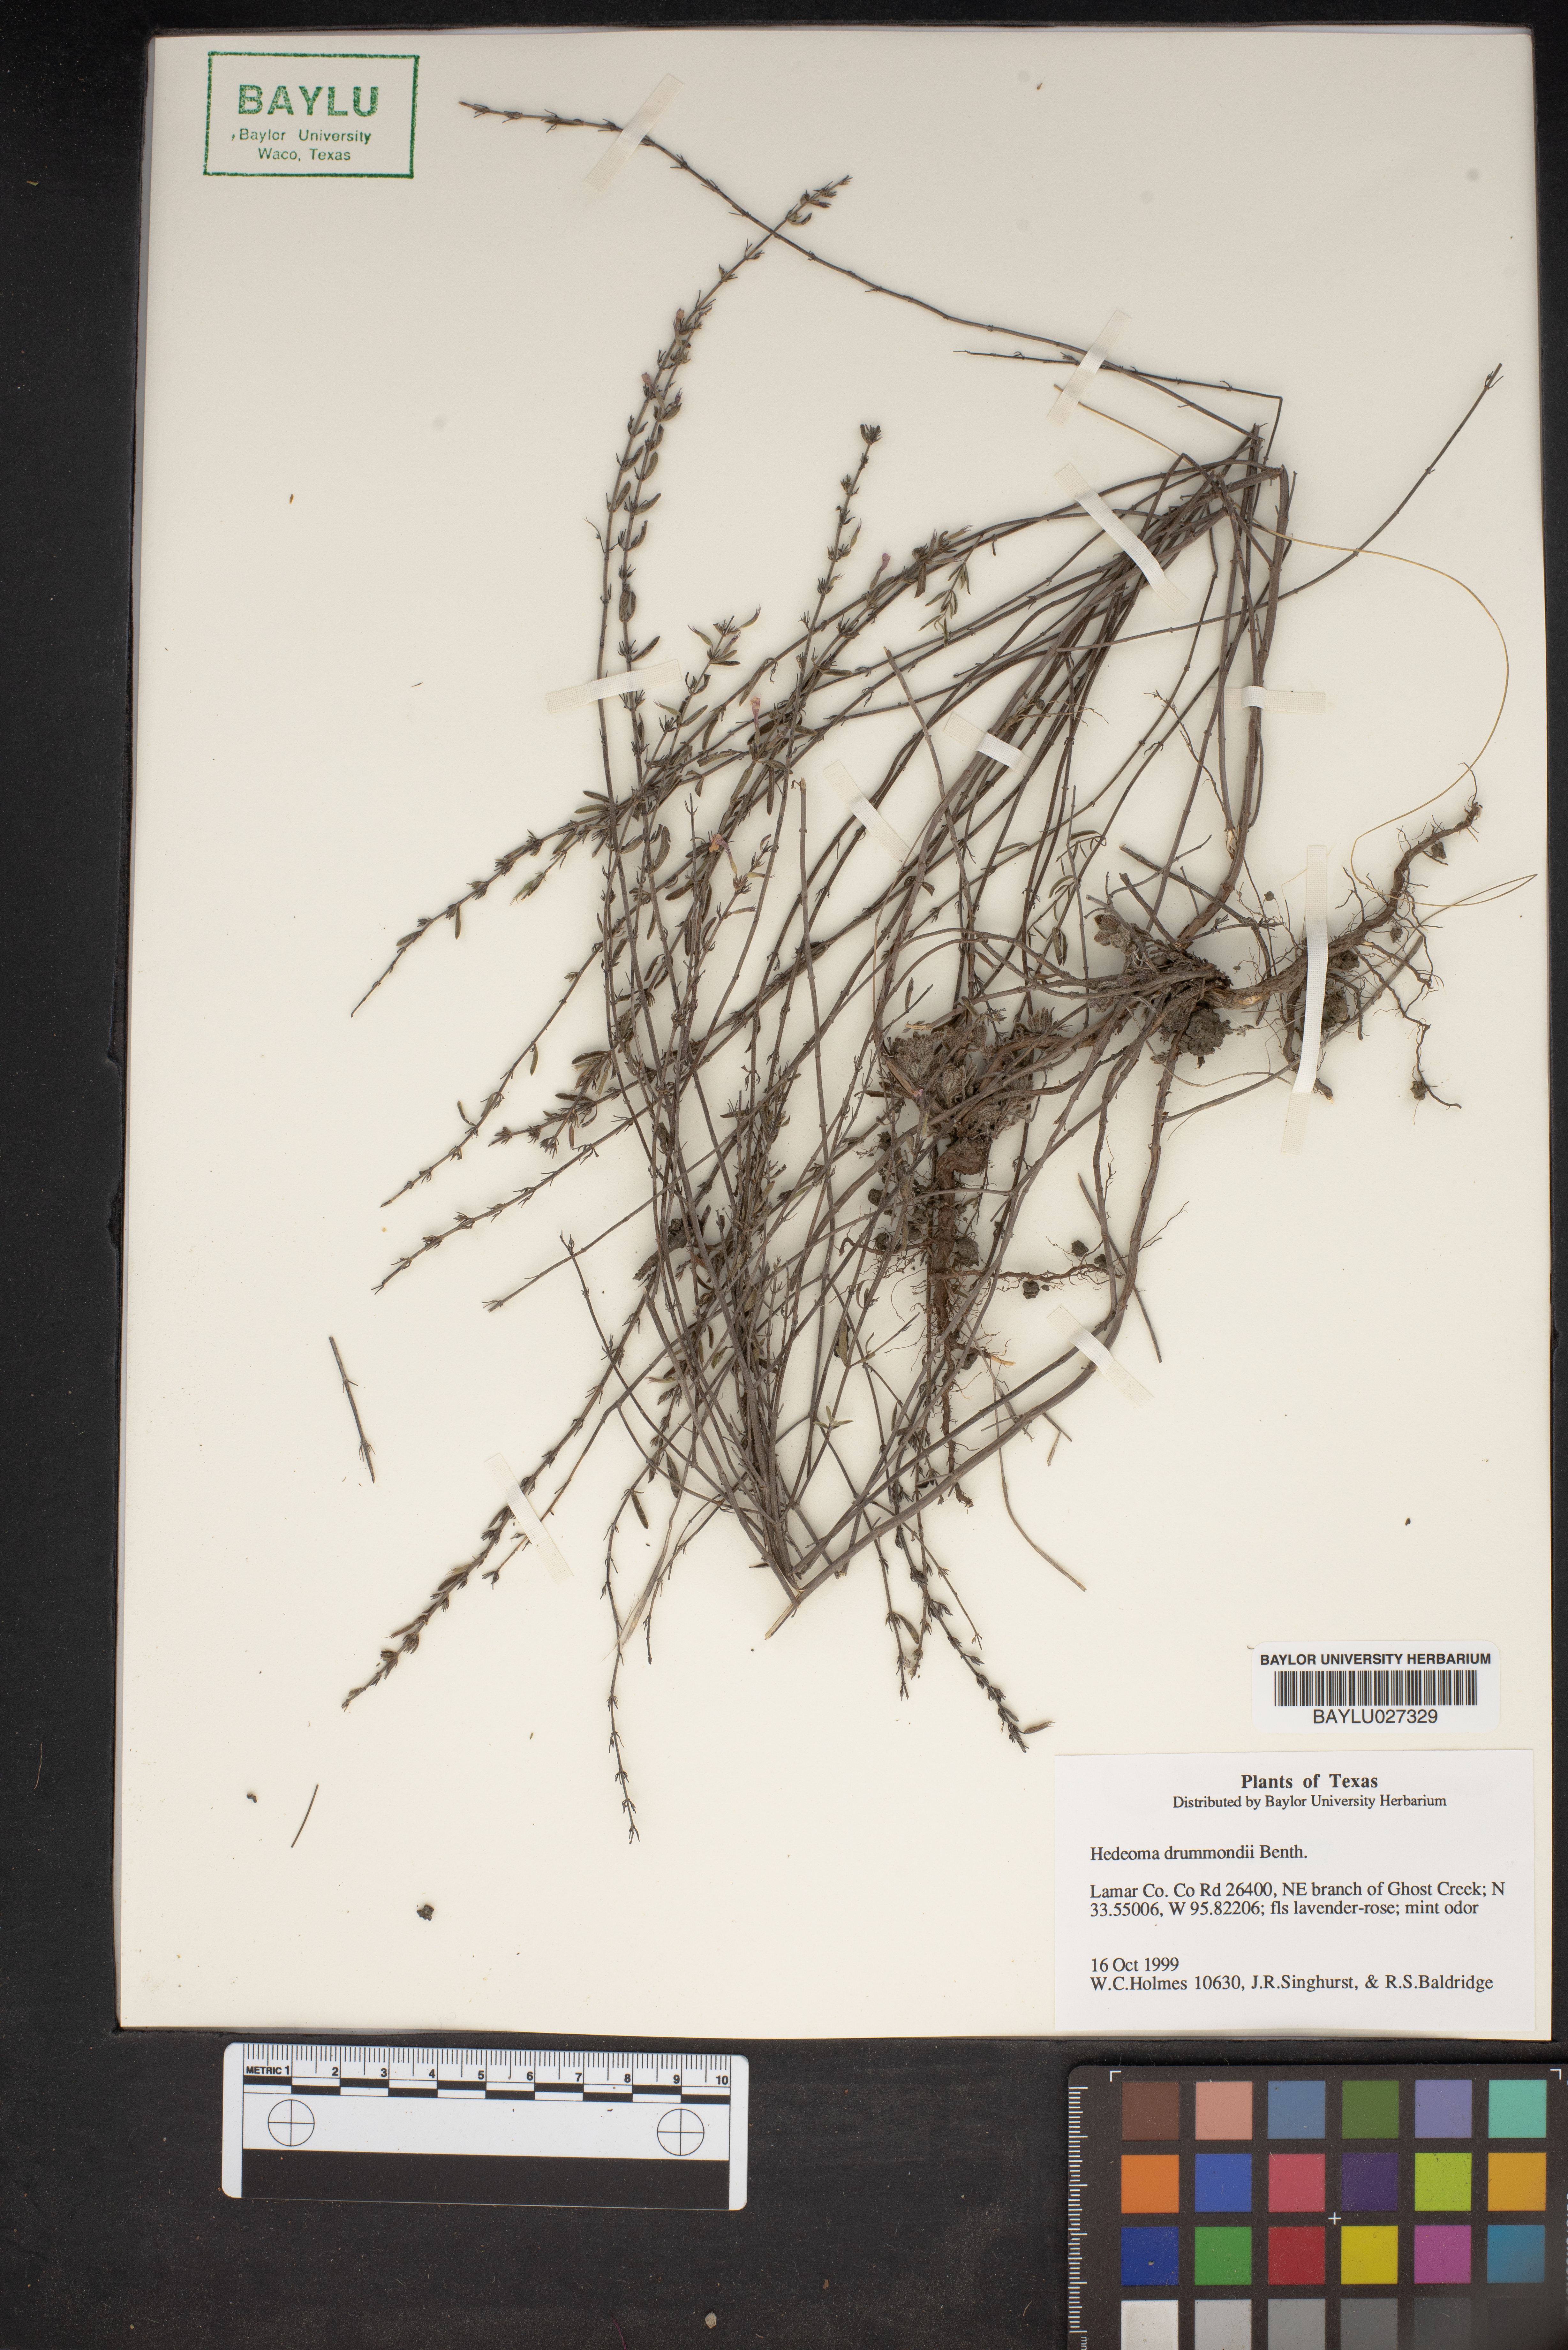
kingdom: Plantae
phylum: Tracheophyta
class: Magnoliopsida
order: Lamiales
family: Lamiaceae
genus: Hedeoma
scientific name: Hedeoma drummondii
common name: New mexico pennyroyal
